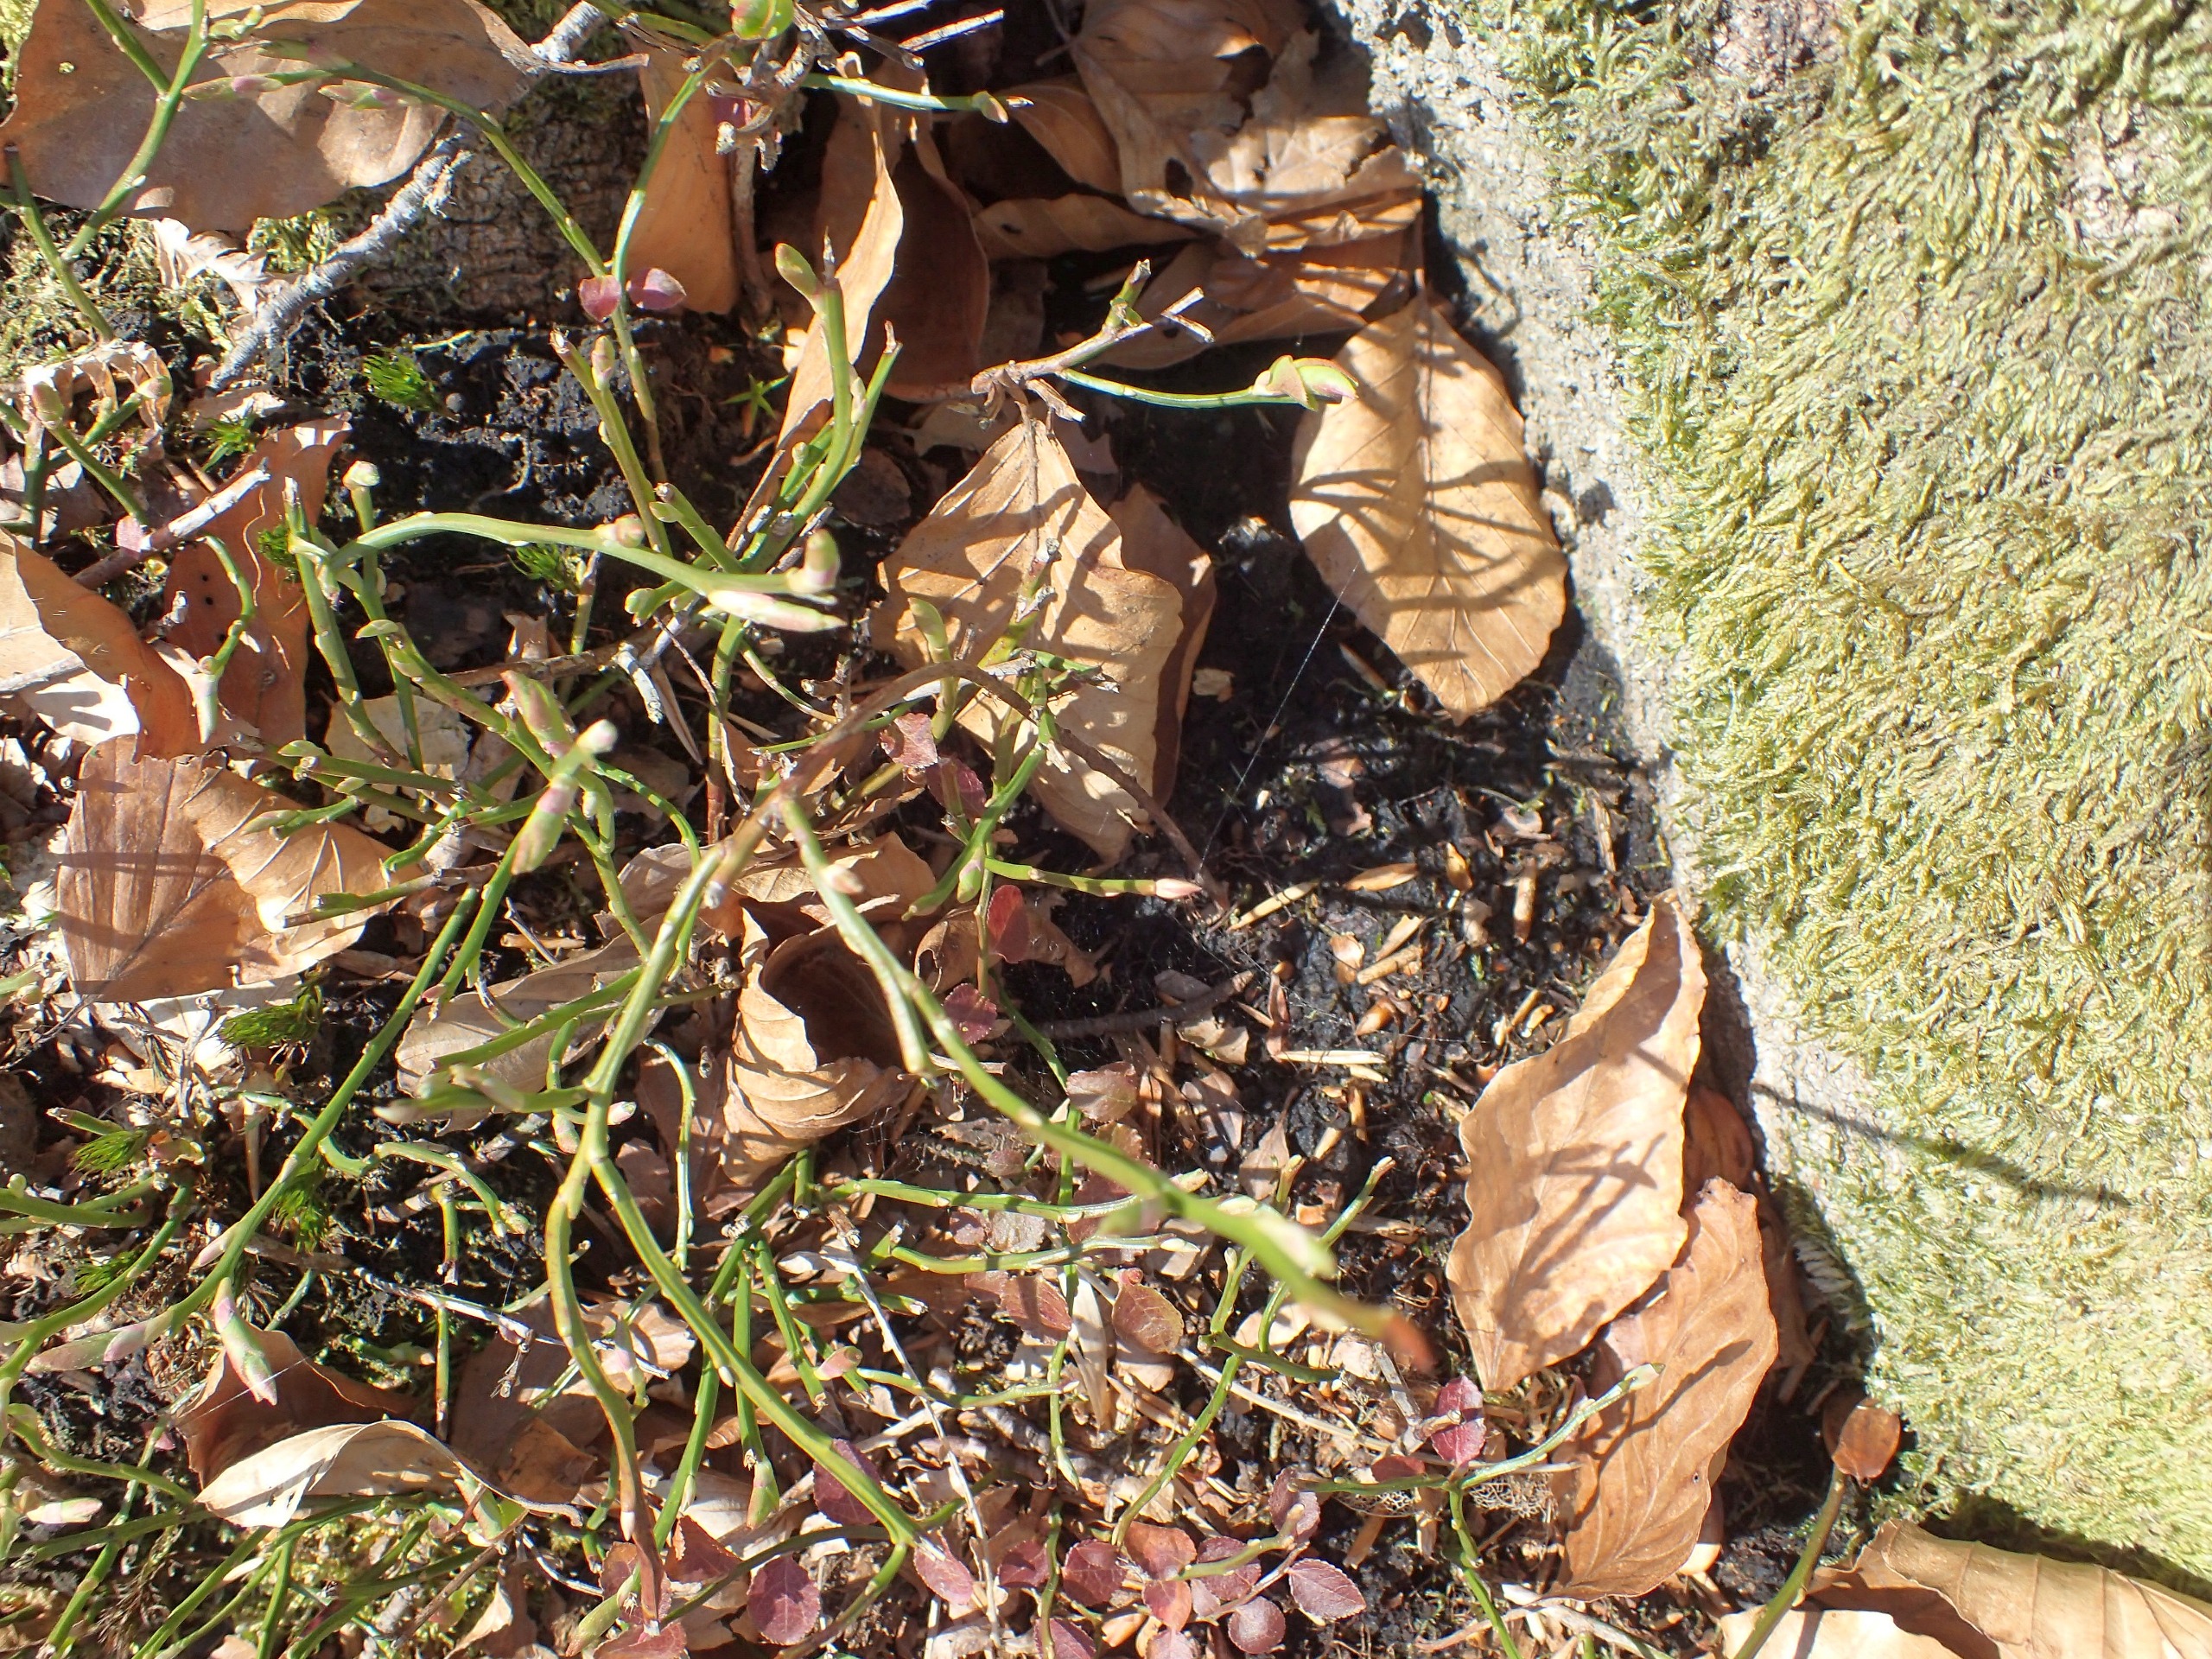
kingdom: Plantae
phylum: Tracheophyta
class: Magnoliopsida
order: Ericales
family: Ericaceae
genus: Vaccinium
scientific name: Vaccinium myrtillus
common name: Blåbær
